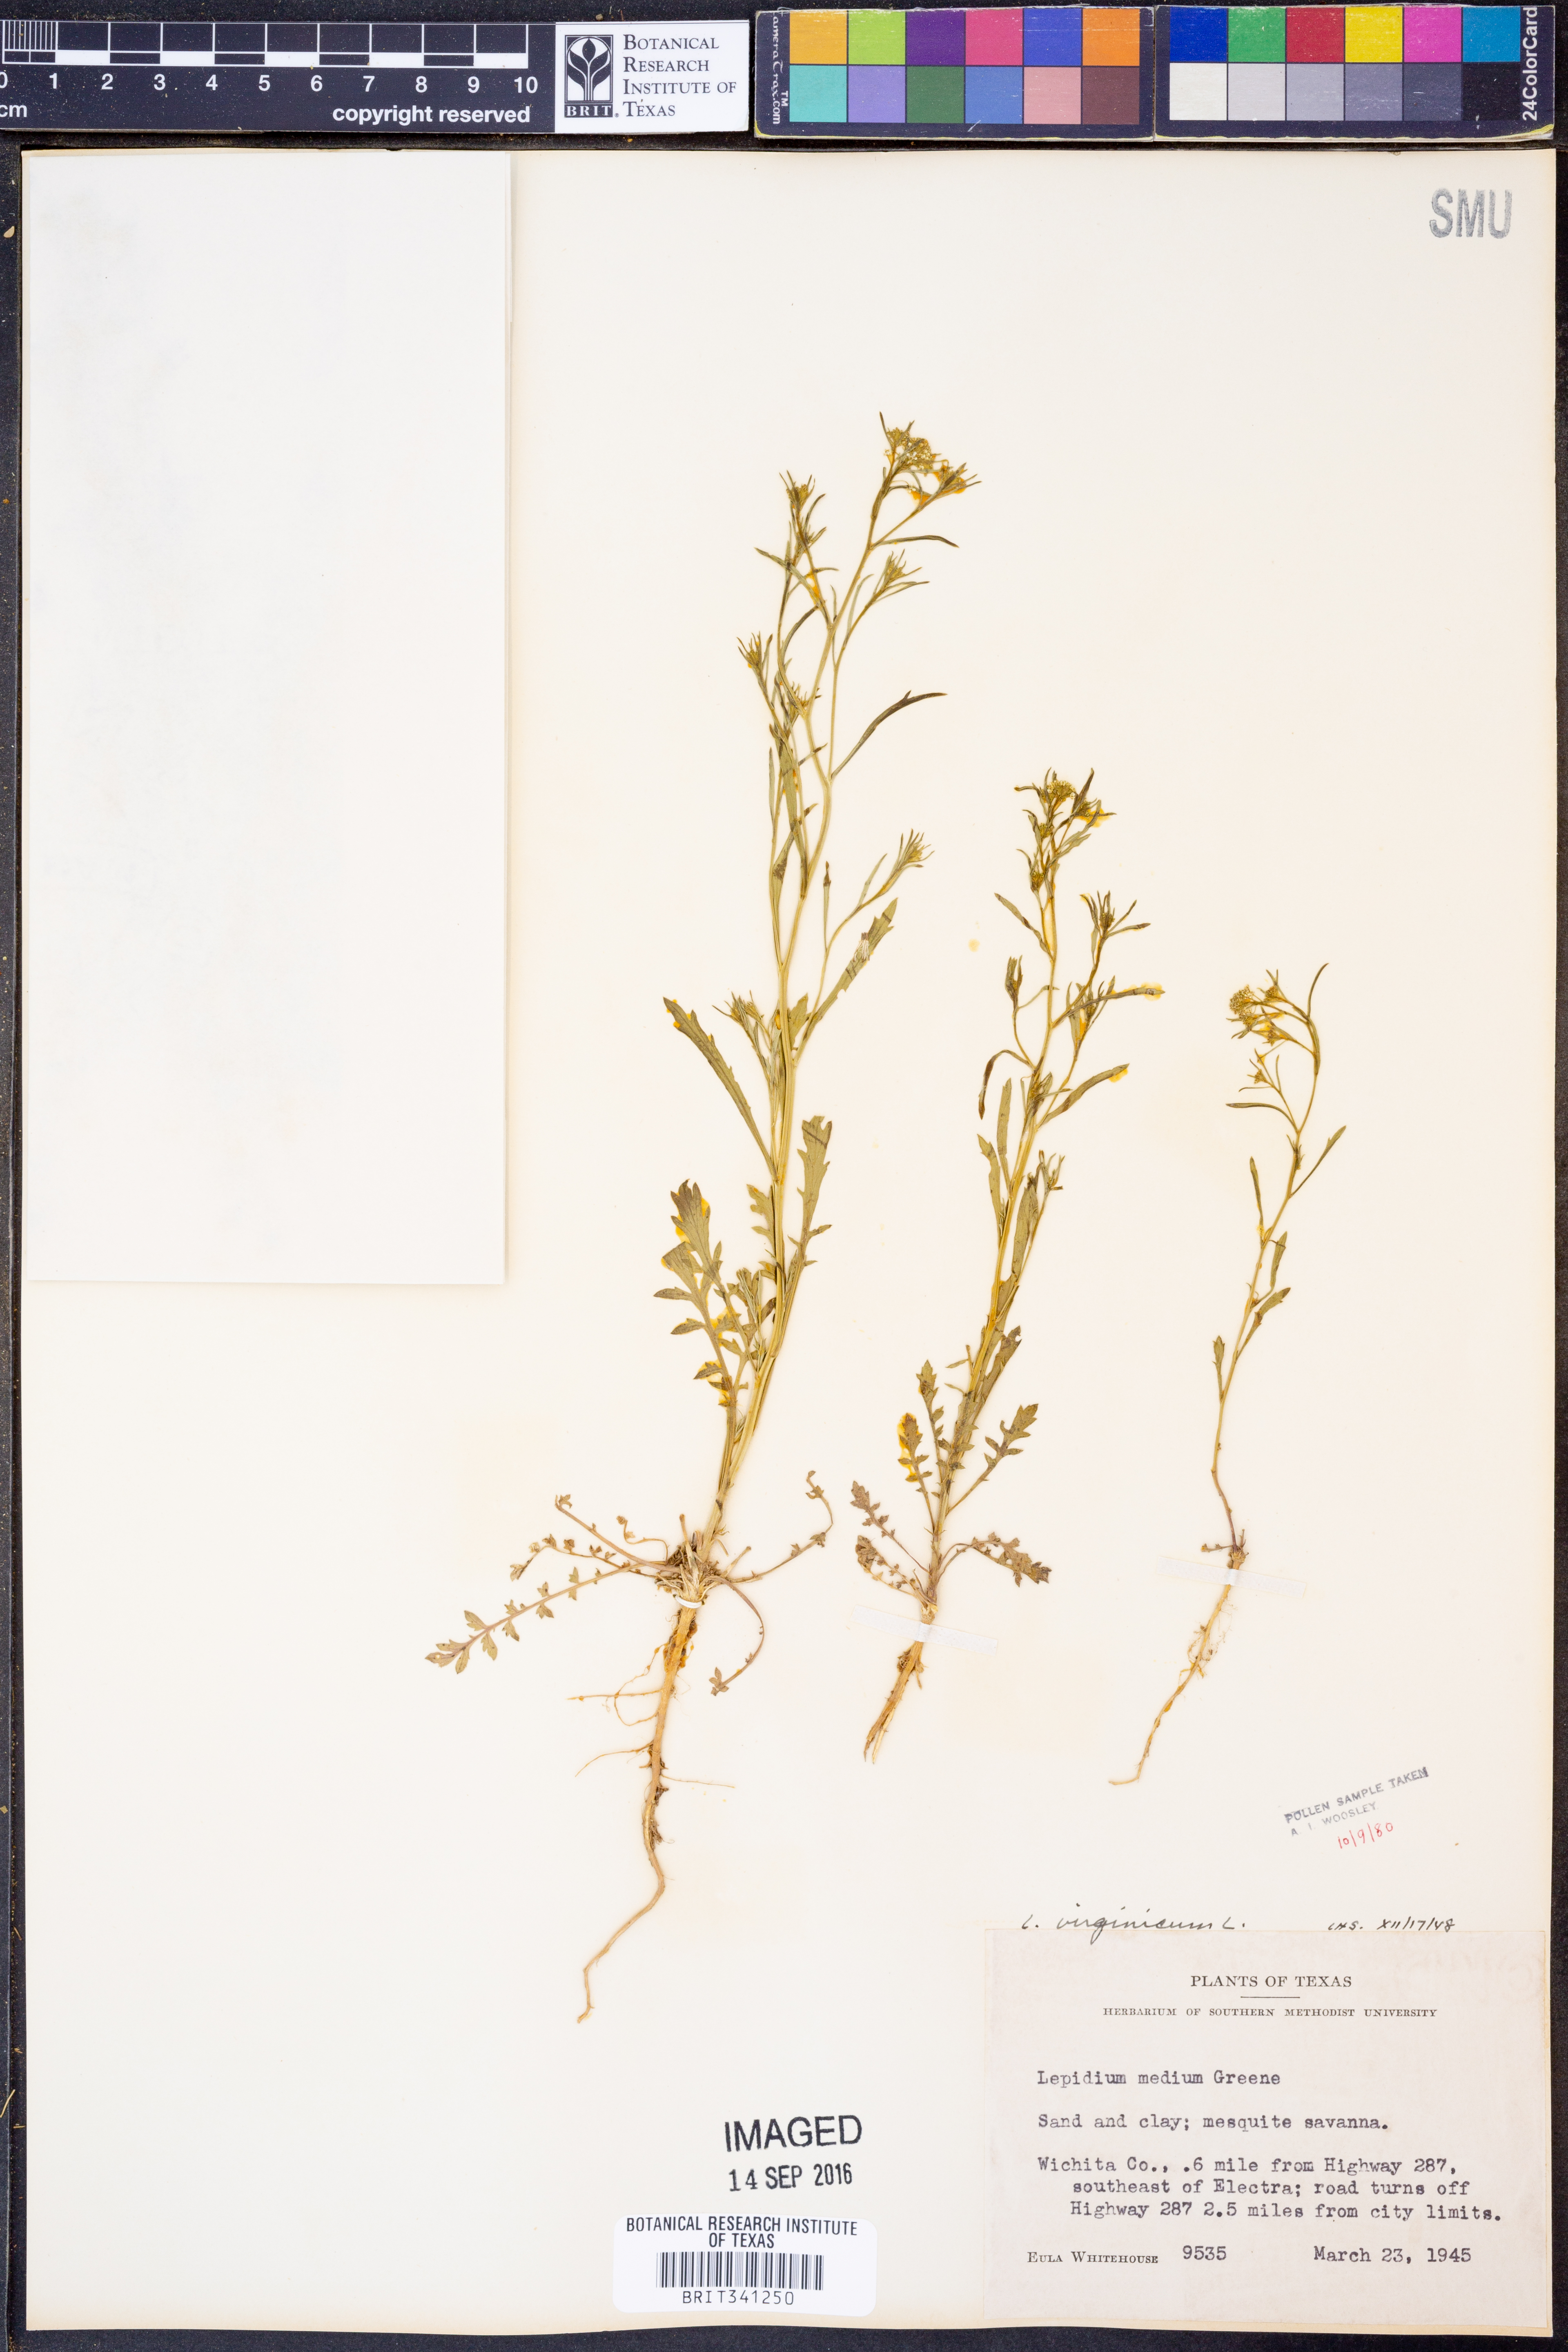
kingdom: Plantae
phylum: Tracheophyta
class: Magnoliopsida
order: Brassicales
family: Brassicaceae
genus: Lepidium
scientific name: Lepidium virginicum
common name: Least pepperwort
